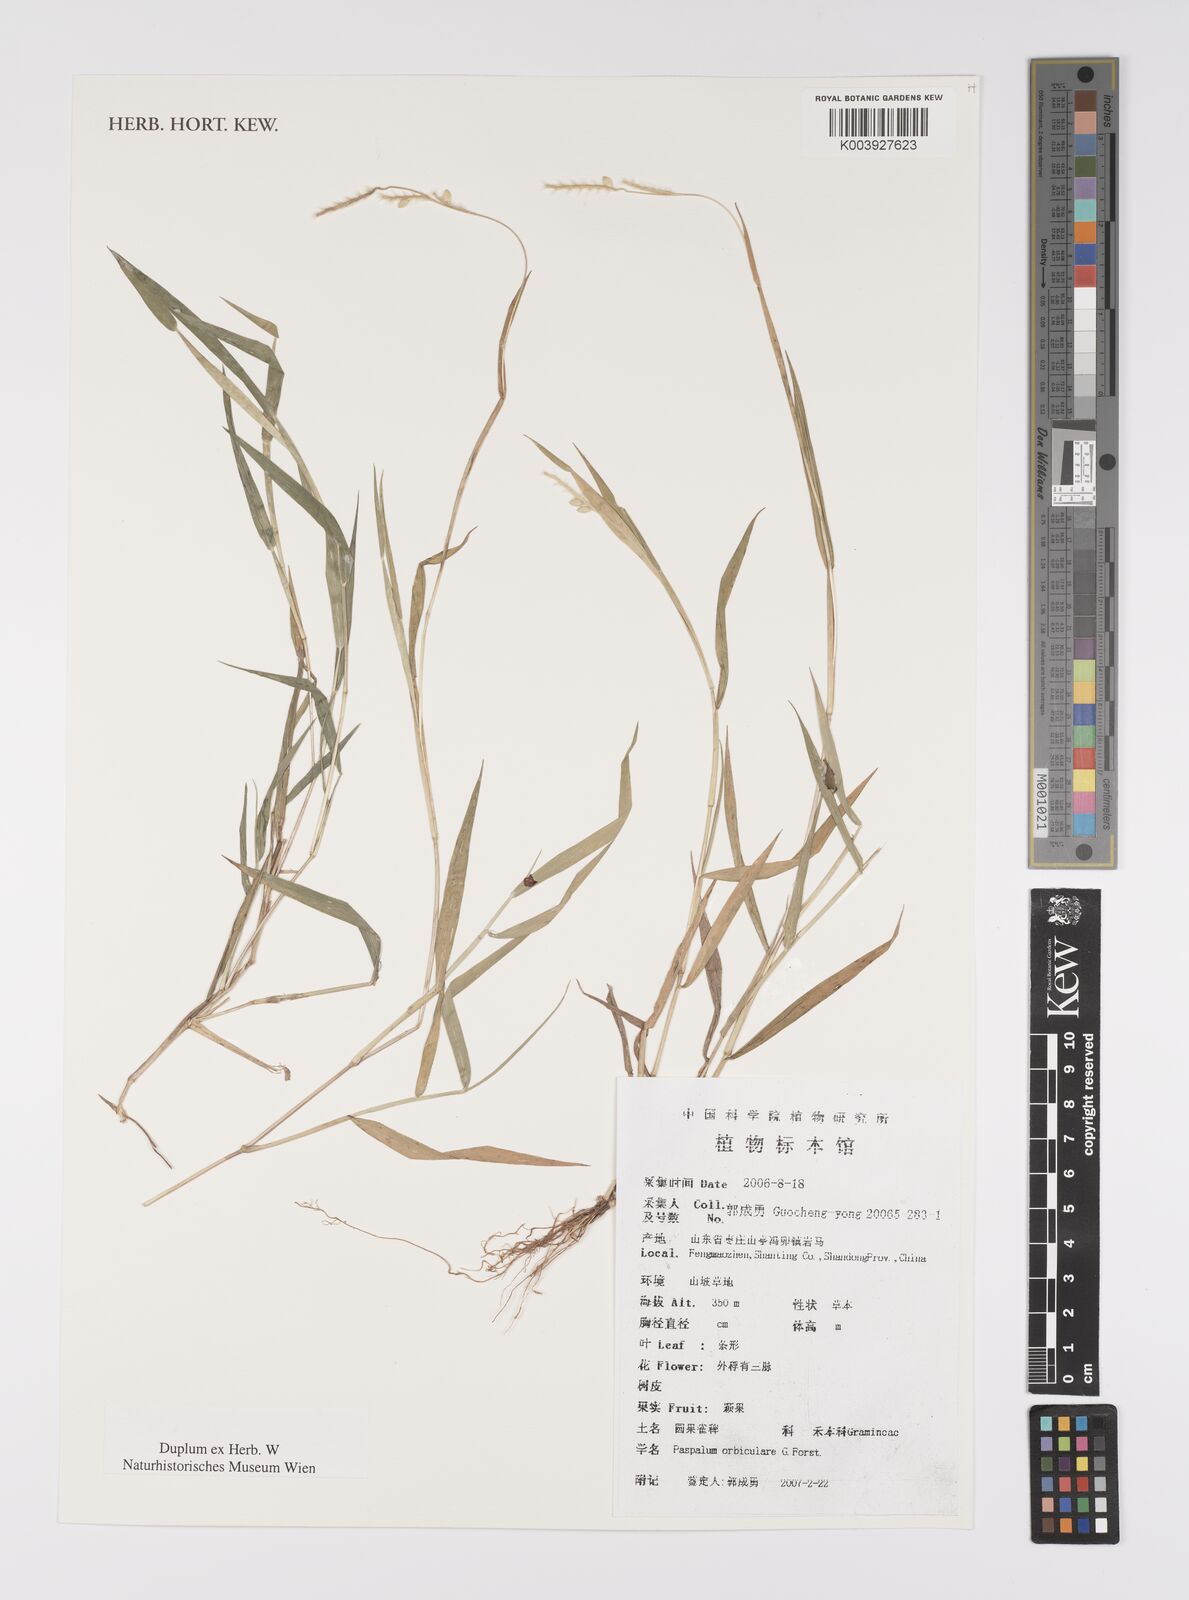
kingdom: Plantae
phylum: Tracheophyta
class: Liliopsida
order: Poales
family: Poaceae
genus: Paspalum
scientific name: Paspalum orbiculare
